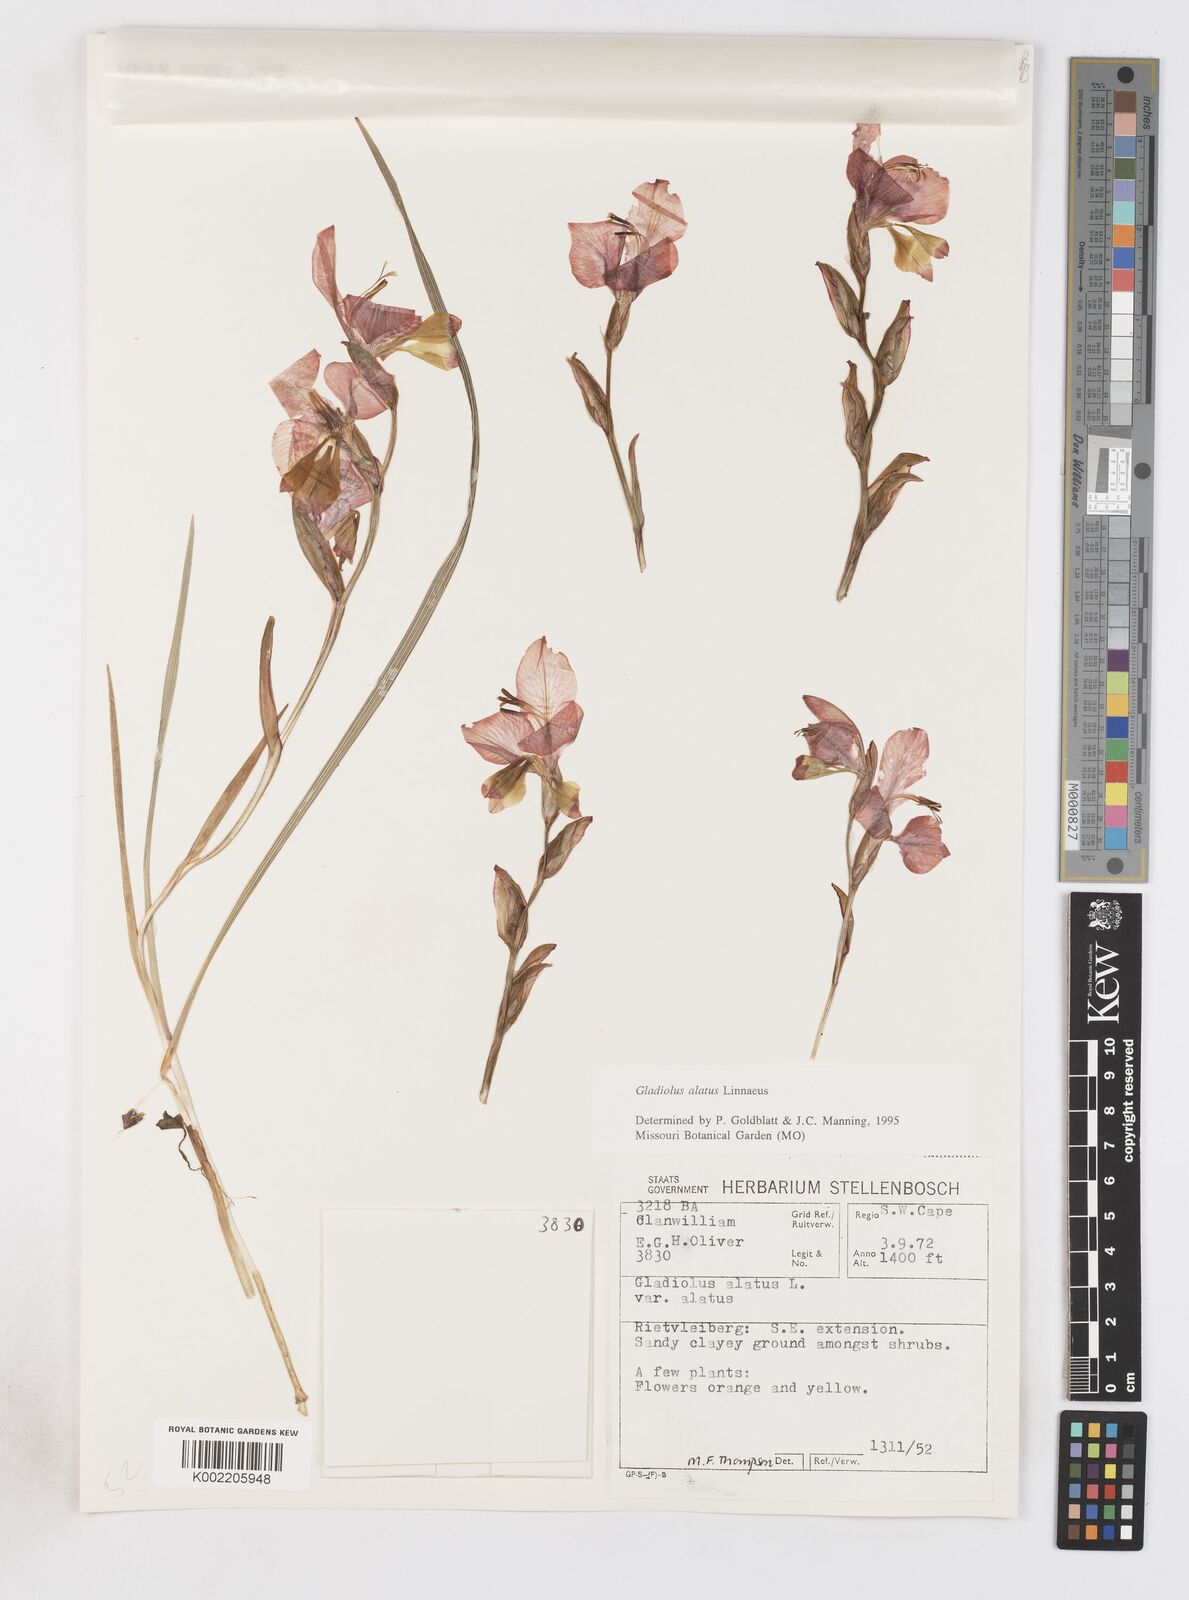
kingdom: Plantae
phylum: Tracheophyta
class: Liliopsida
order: Asparagales
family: Iridaceae
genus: Gladiolus
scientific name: Gladiolus alatus
